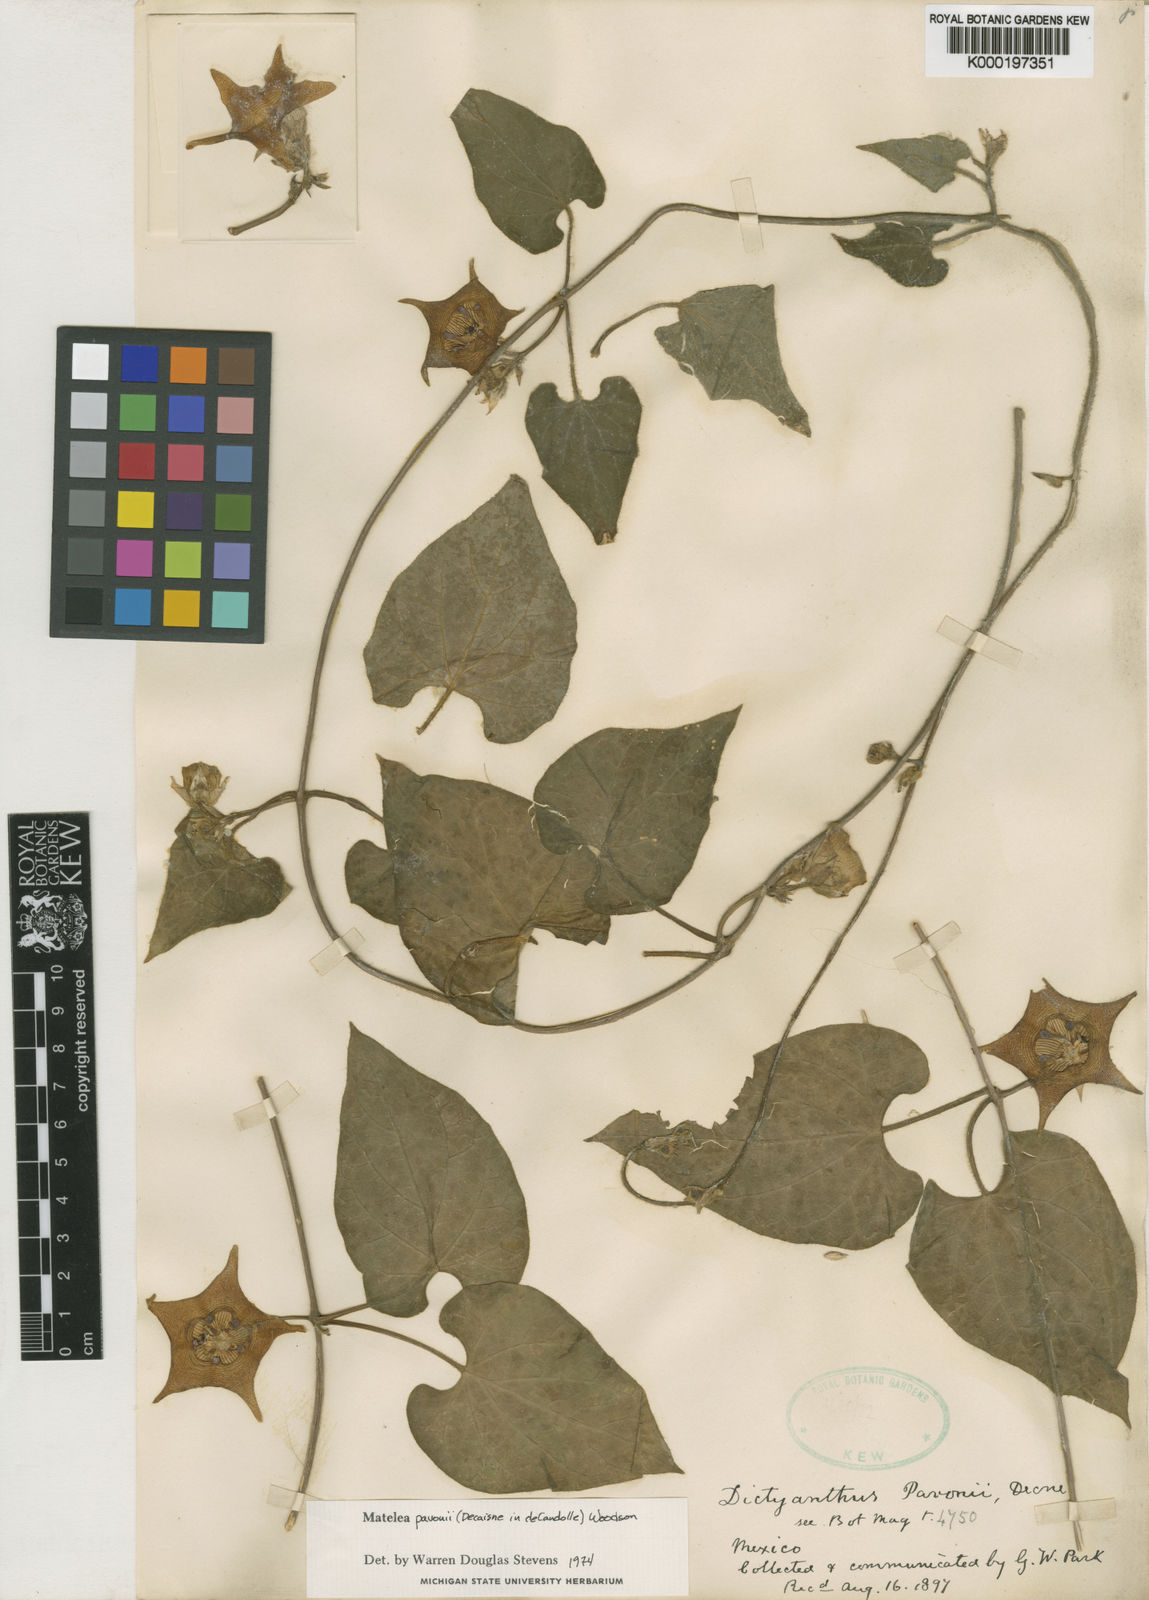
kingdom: Plantae
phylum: Tracheophyta
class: Magnoliopsida
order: Gentianales
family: Apocynaceae
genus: Dictyanthus
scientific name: Dictyanthus pavonii
